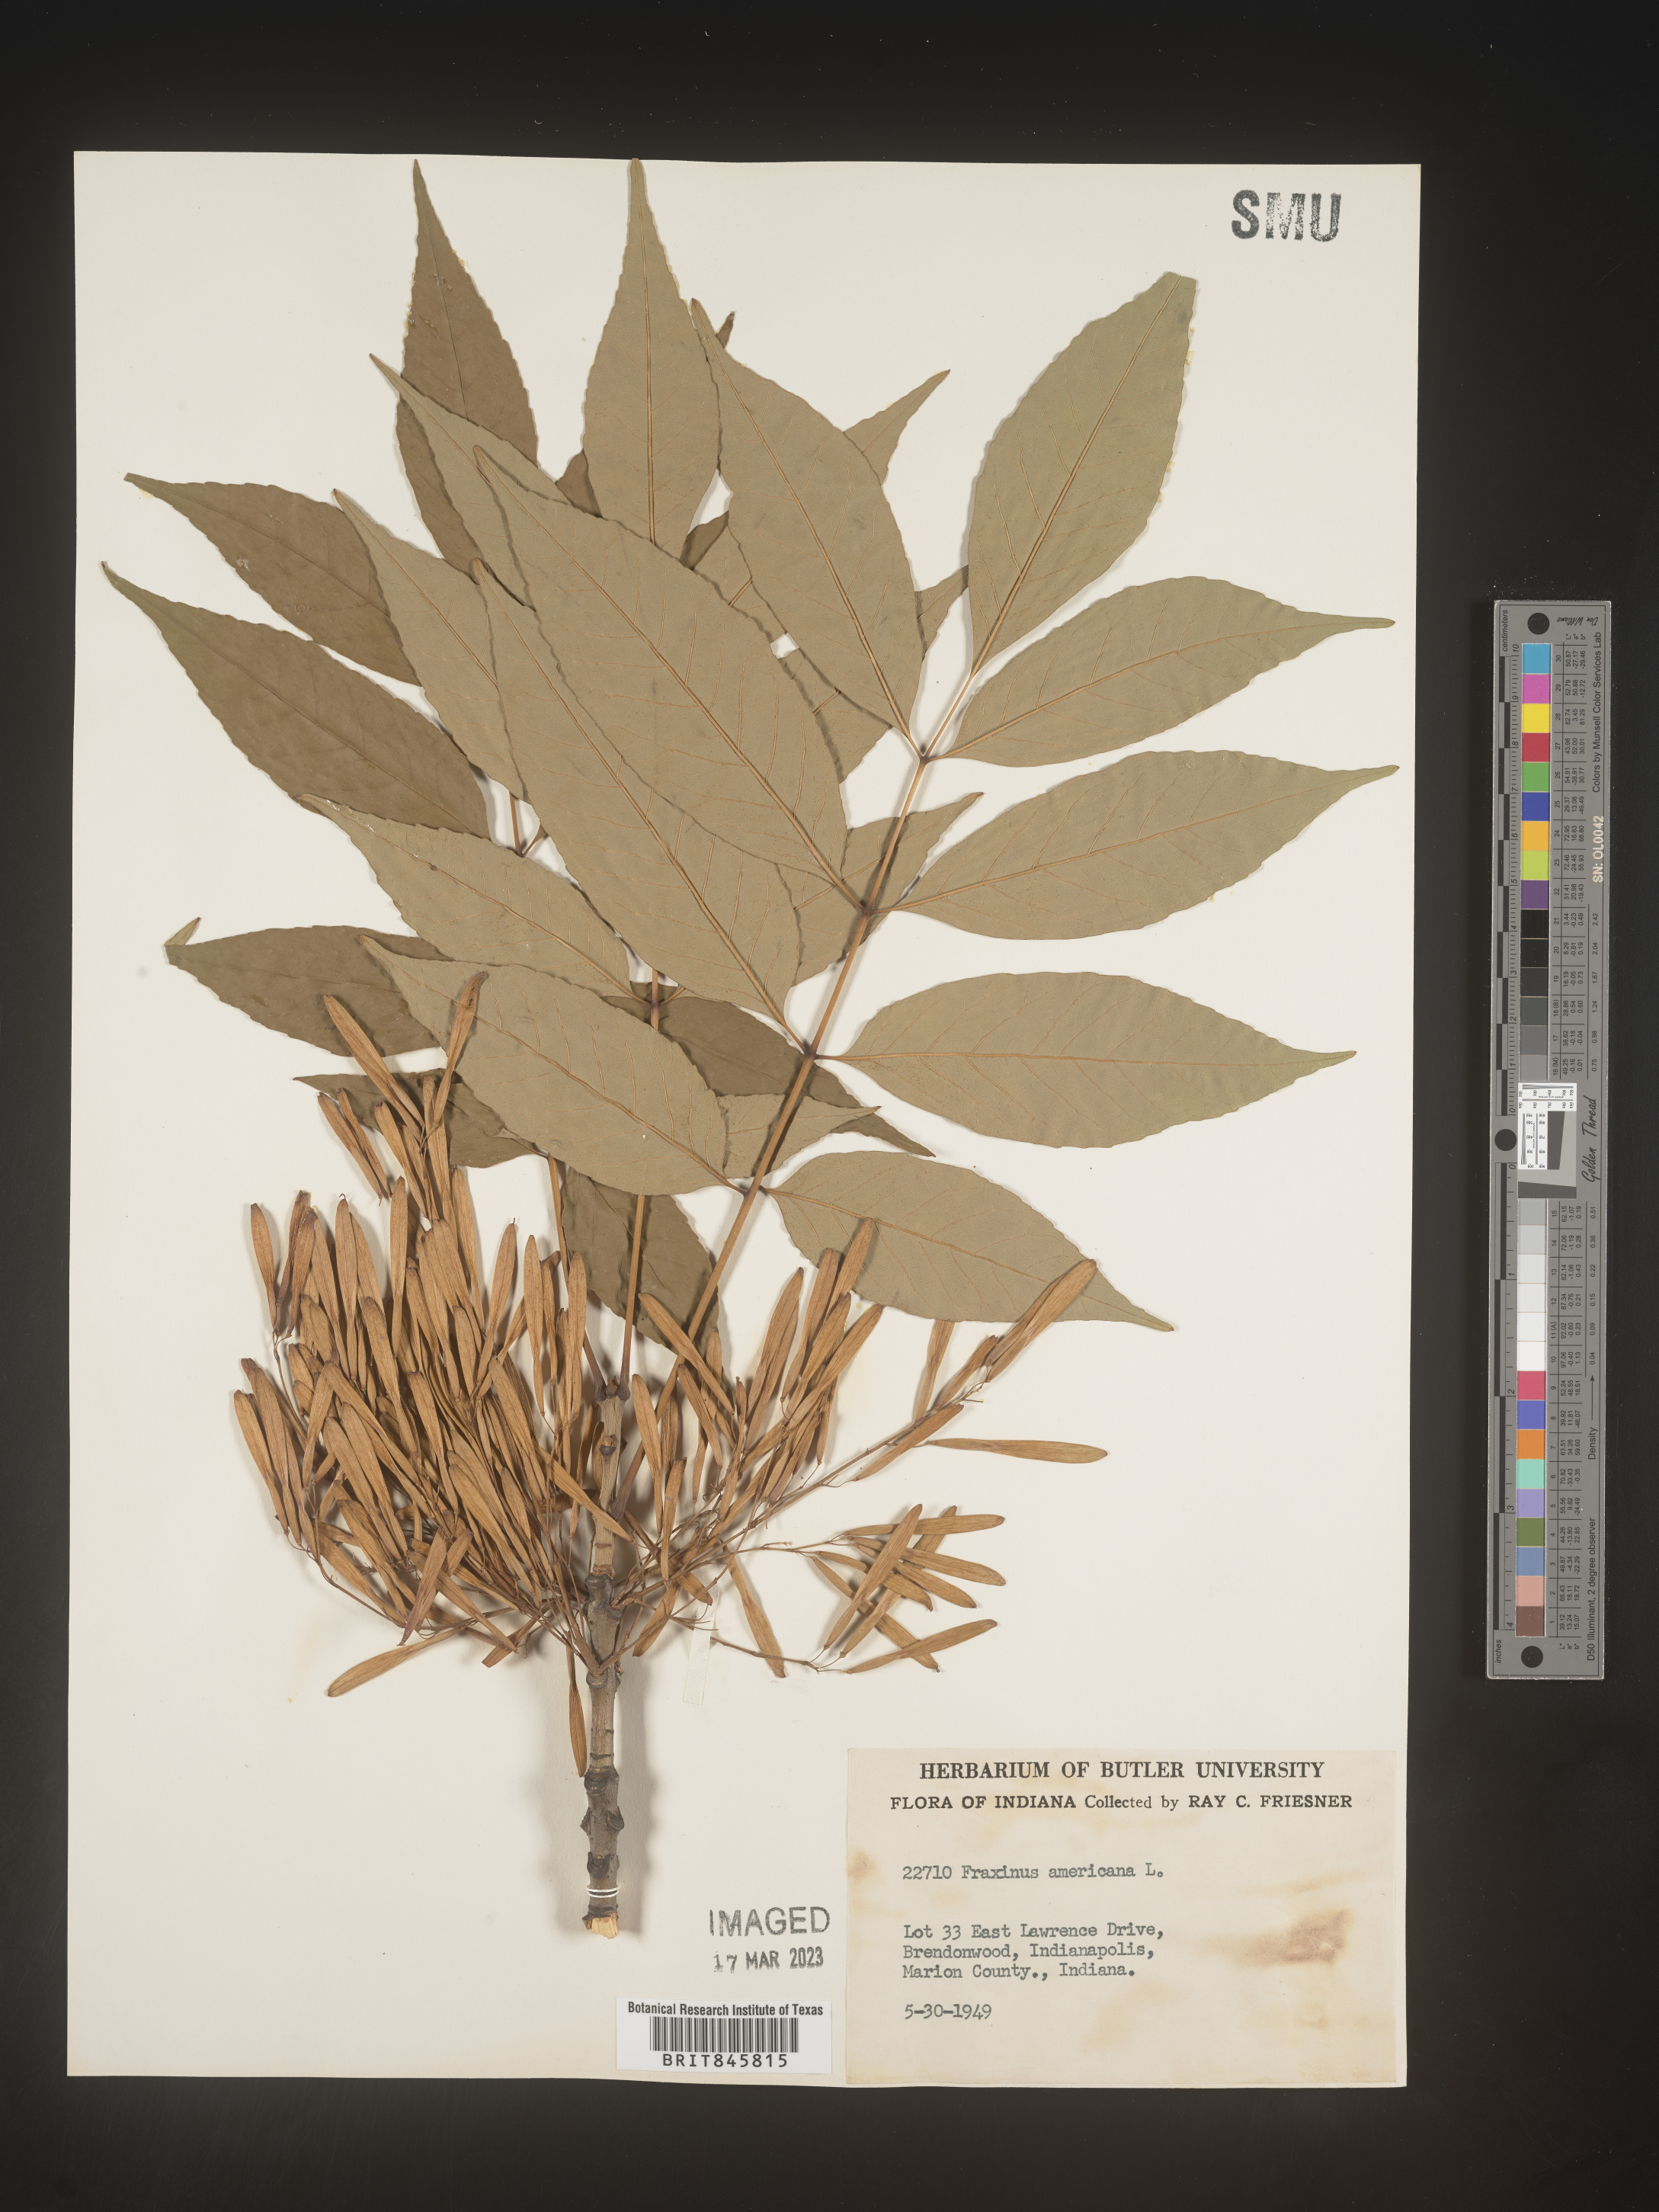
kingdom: Plantae
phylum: Tracheophyta
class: Magnoliopsida
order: Lamiales
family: Oleaceae
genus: Fraxinus
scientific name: Fraxinus americana
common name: White ash
